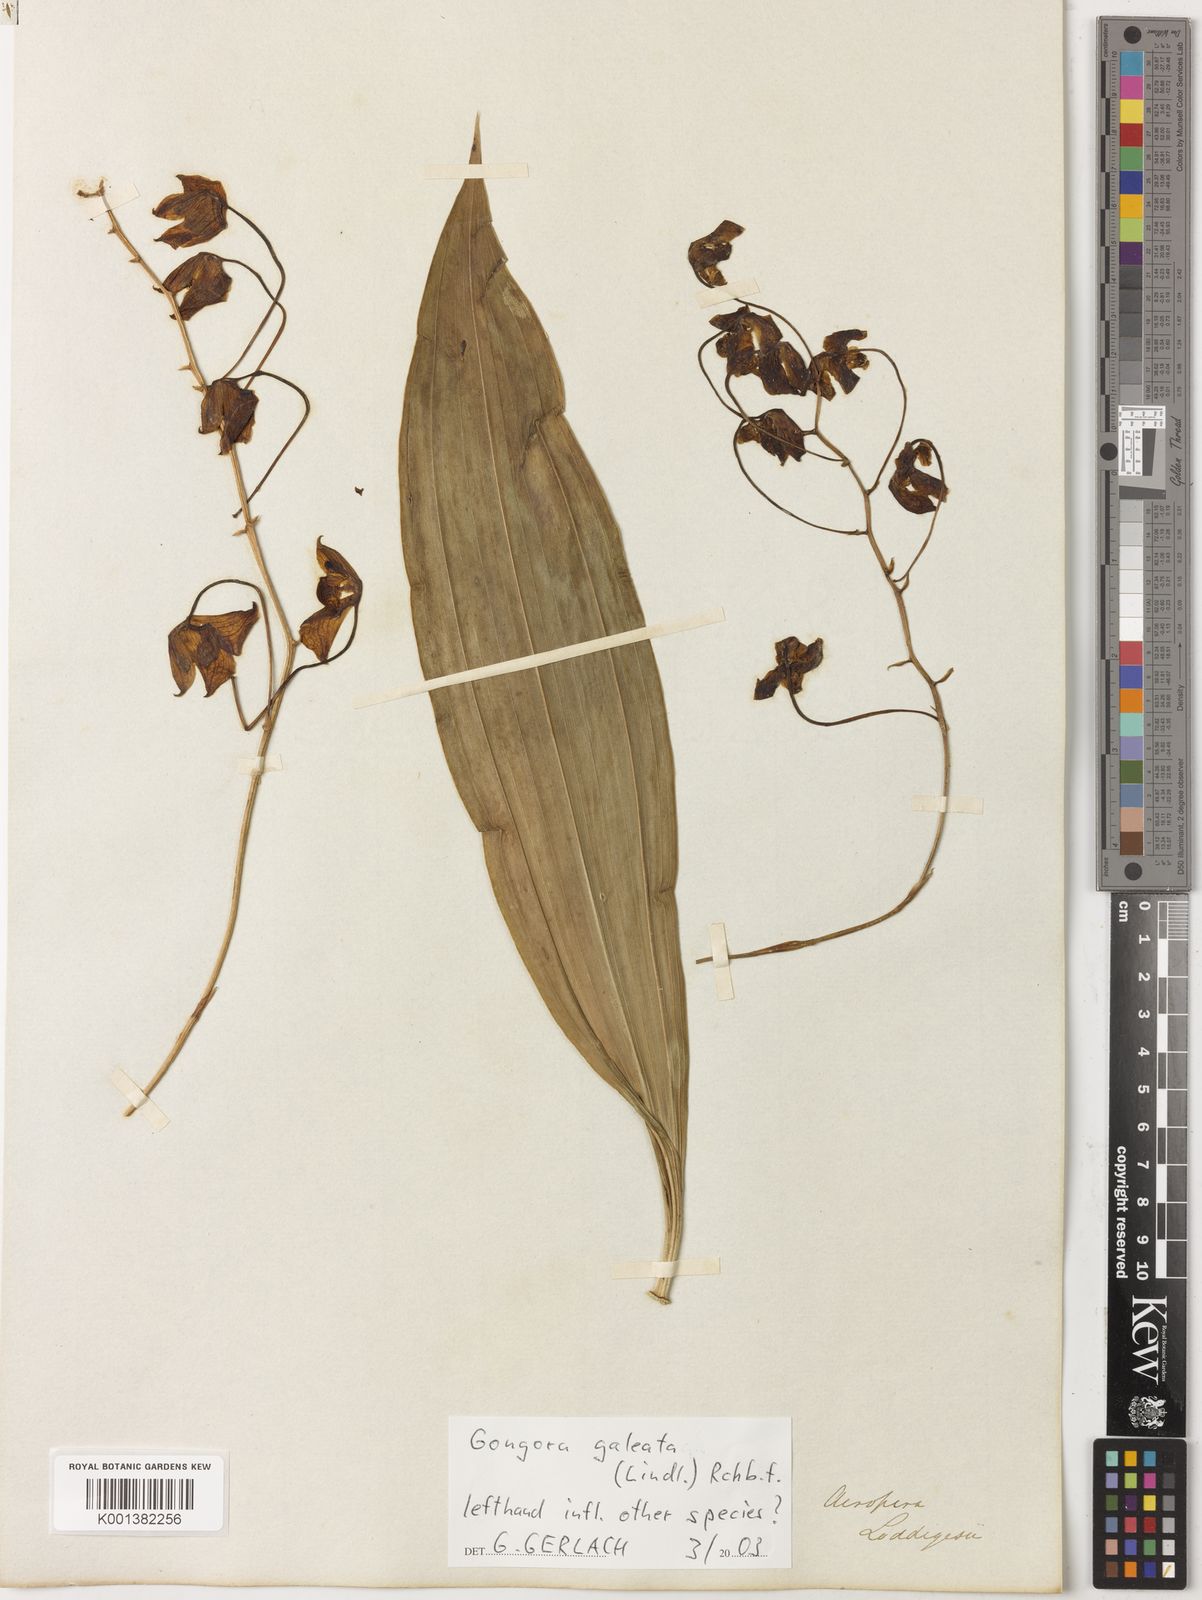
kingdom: Plantae
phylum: Tracheophyta
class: Liliopsida
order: Asparagales
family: Orchidaceae
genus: Gongora
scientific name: Gongora galeata
